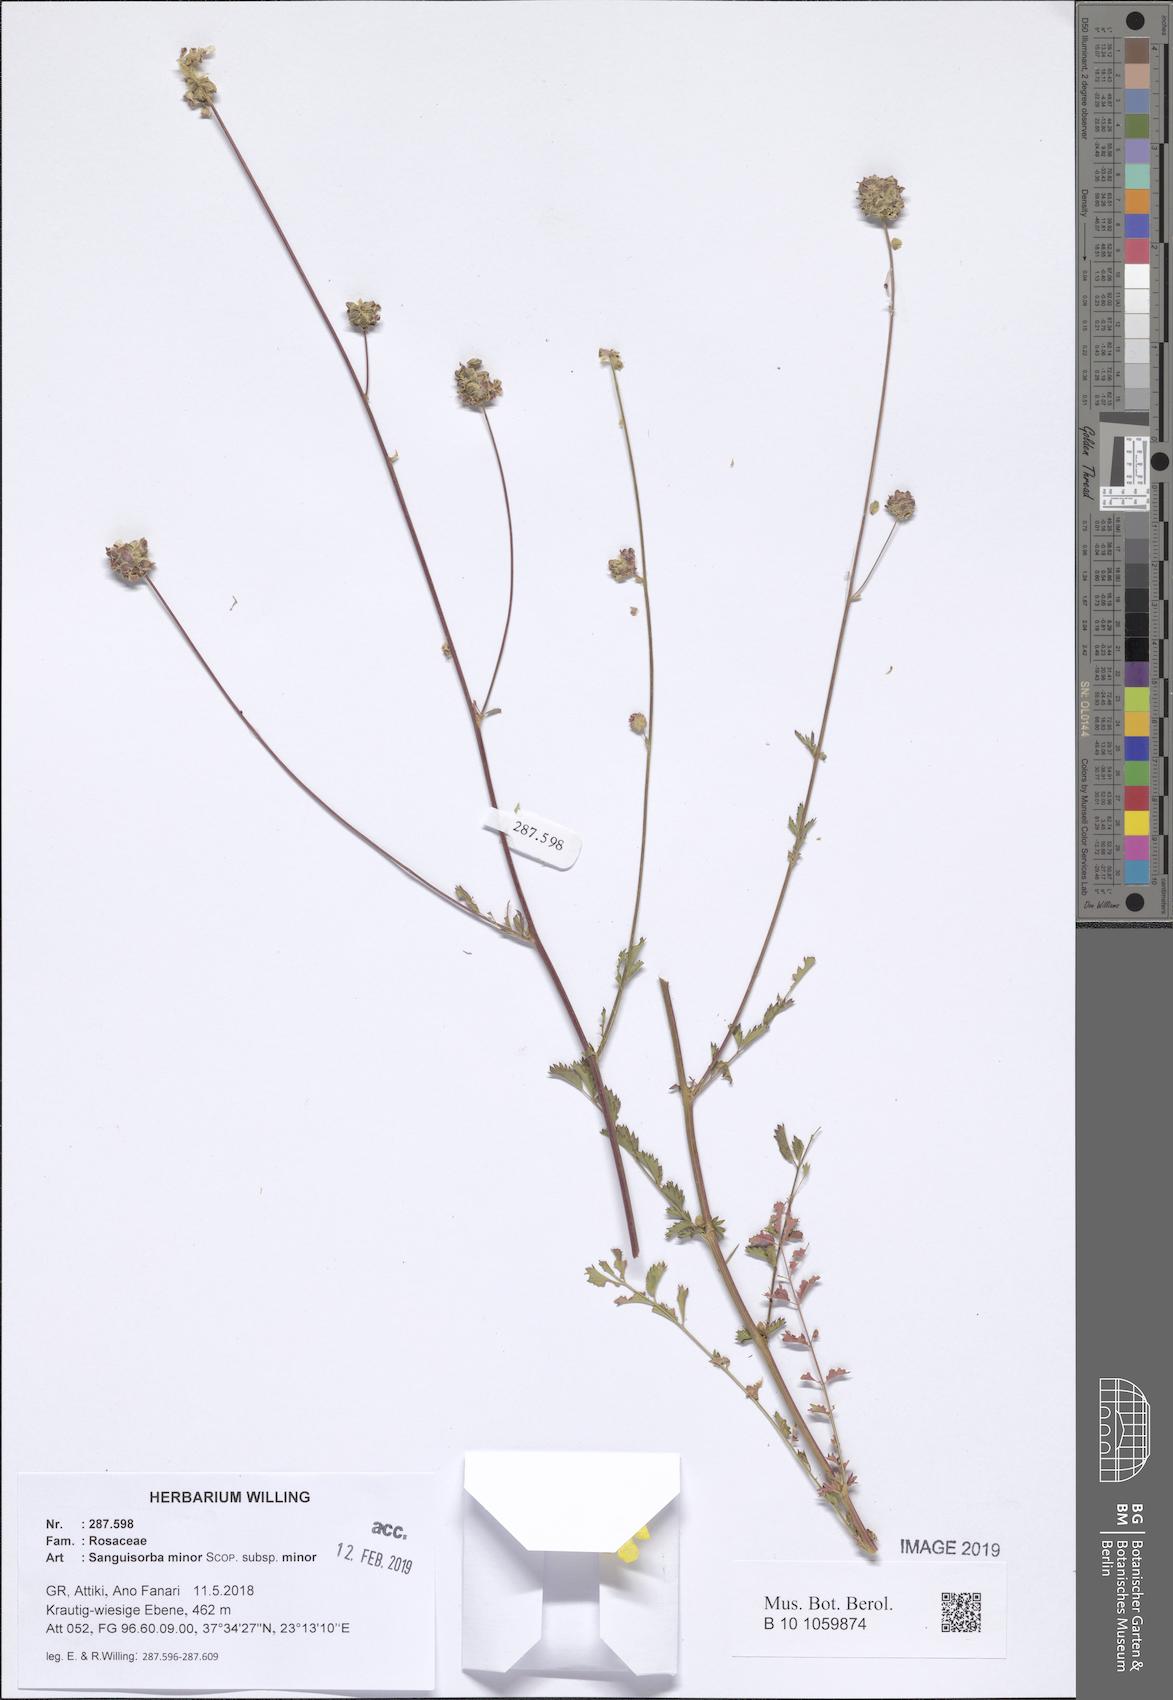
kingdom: Plantae
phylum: Tracheophyta
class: Magnoliopsida
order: Rosales
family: Rosaceae
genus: Poterium
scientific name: Poterium sanguisorba
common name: Salad burnet
